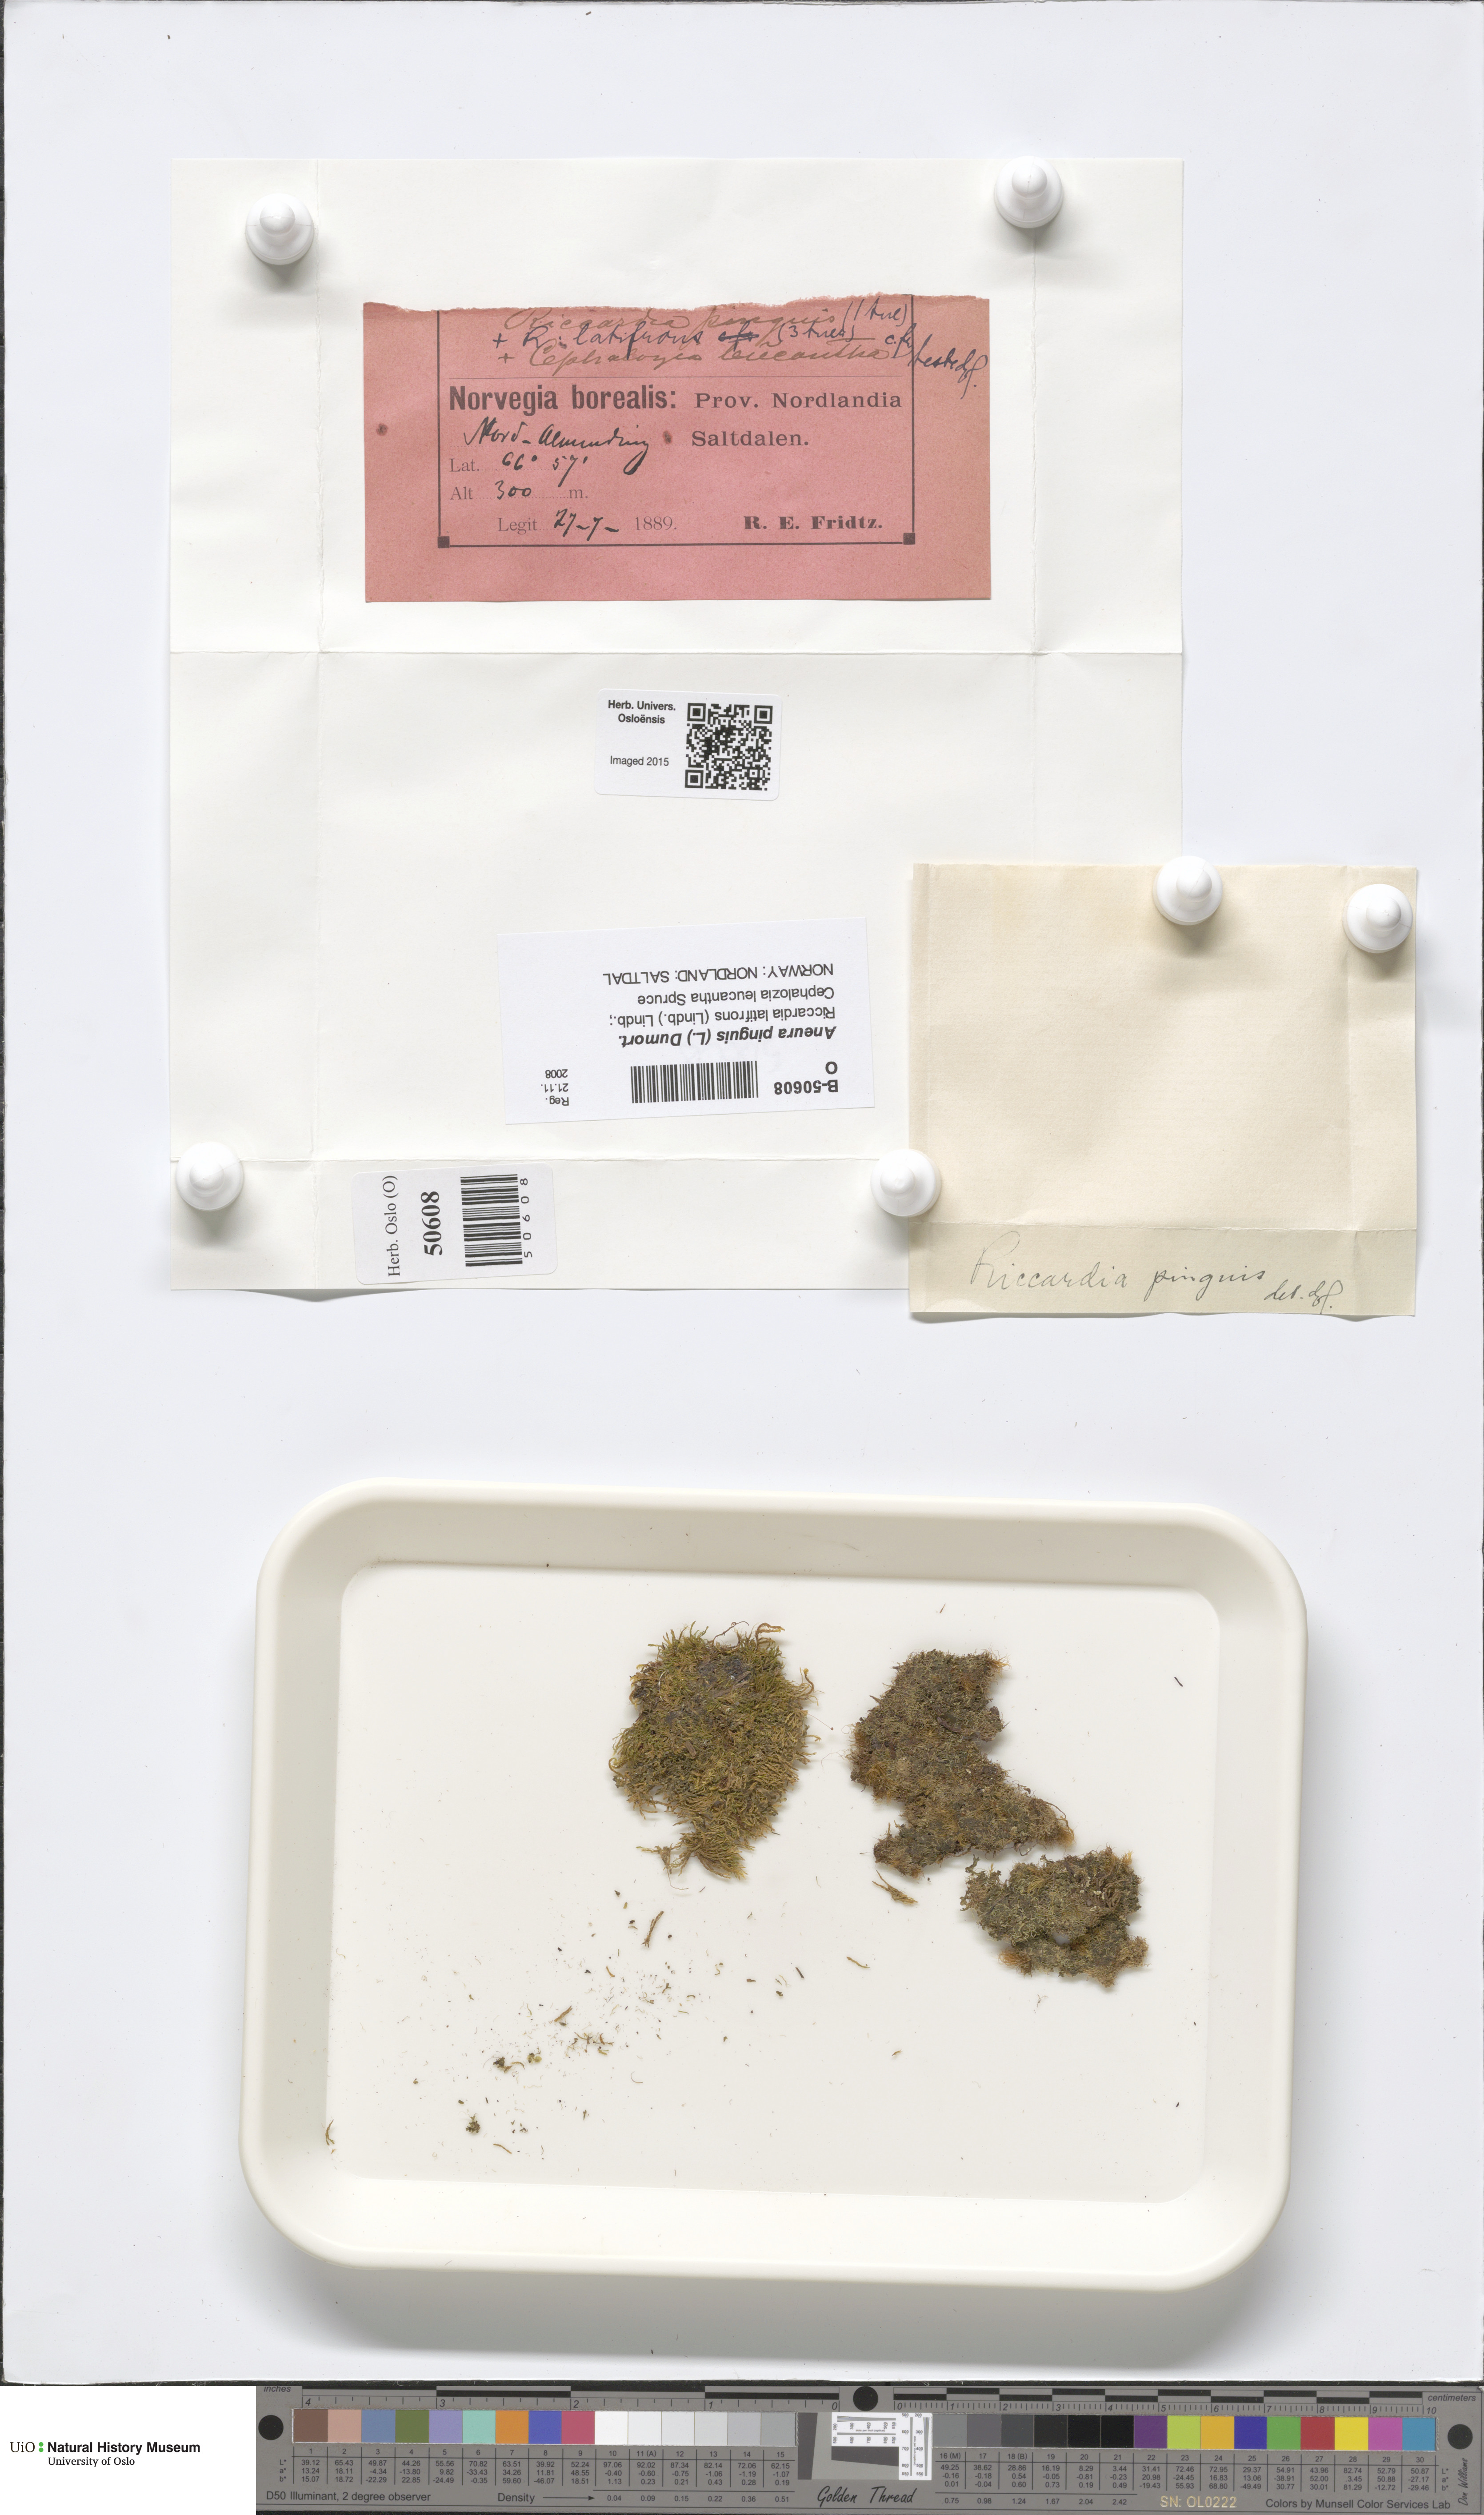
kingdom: Plantae
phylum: Marchantiophyta
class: Jungermanniopsida
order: Metzgeriales
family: Aneuraceae
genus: Aneura
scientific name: Aneura pinguis
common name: Common greasewort
